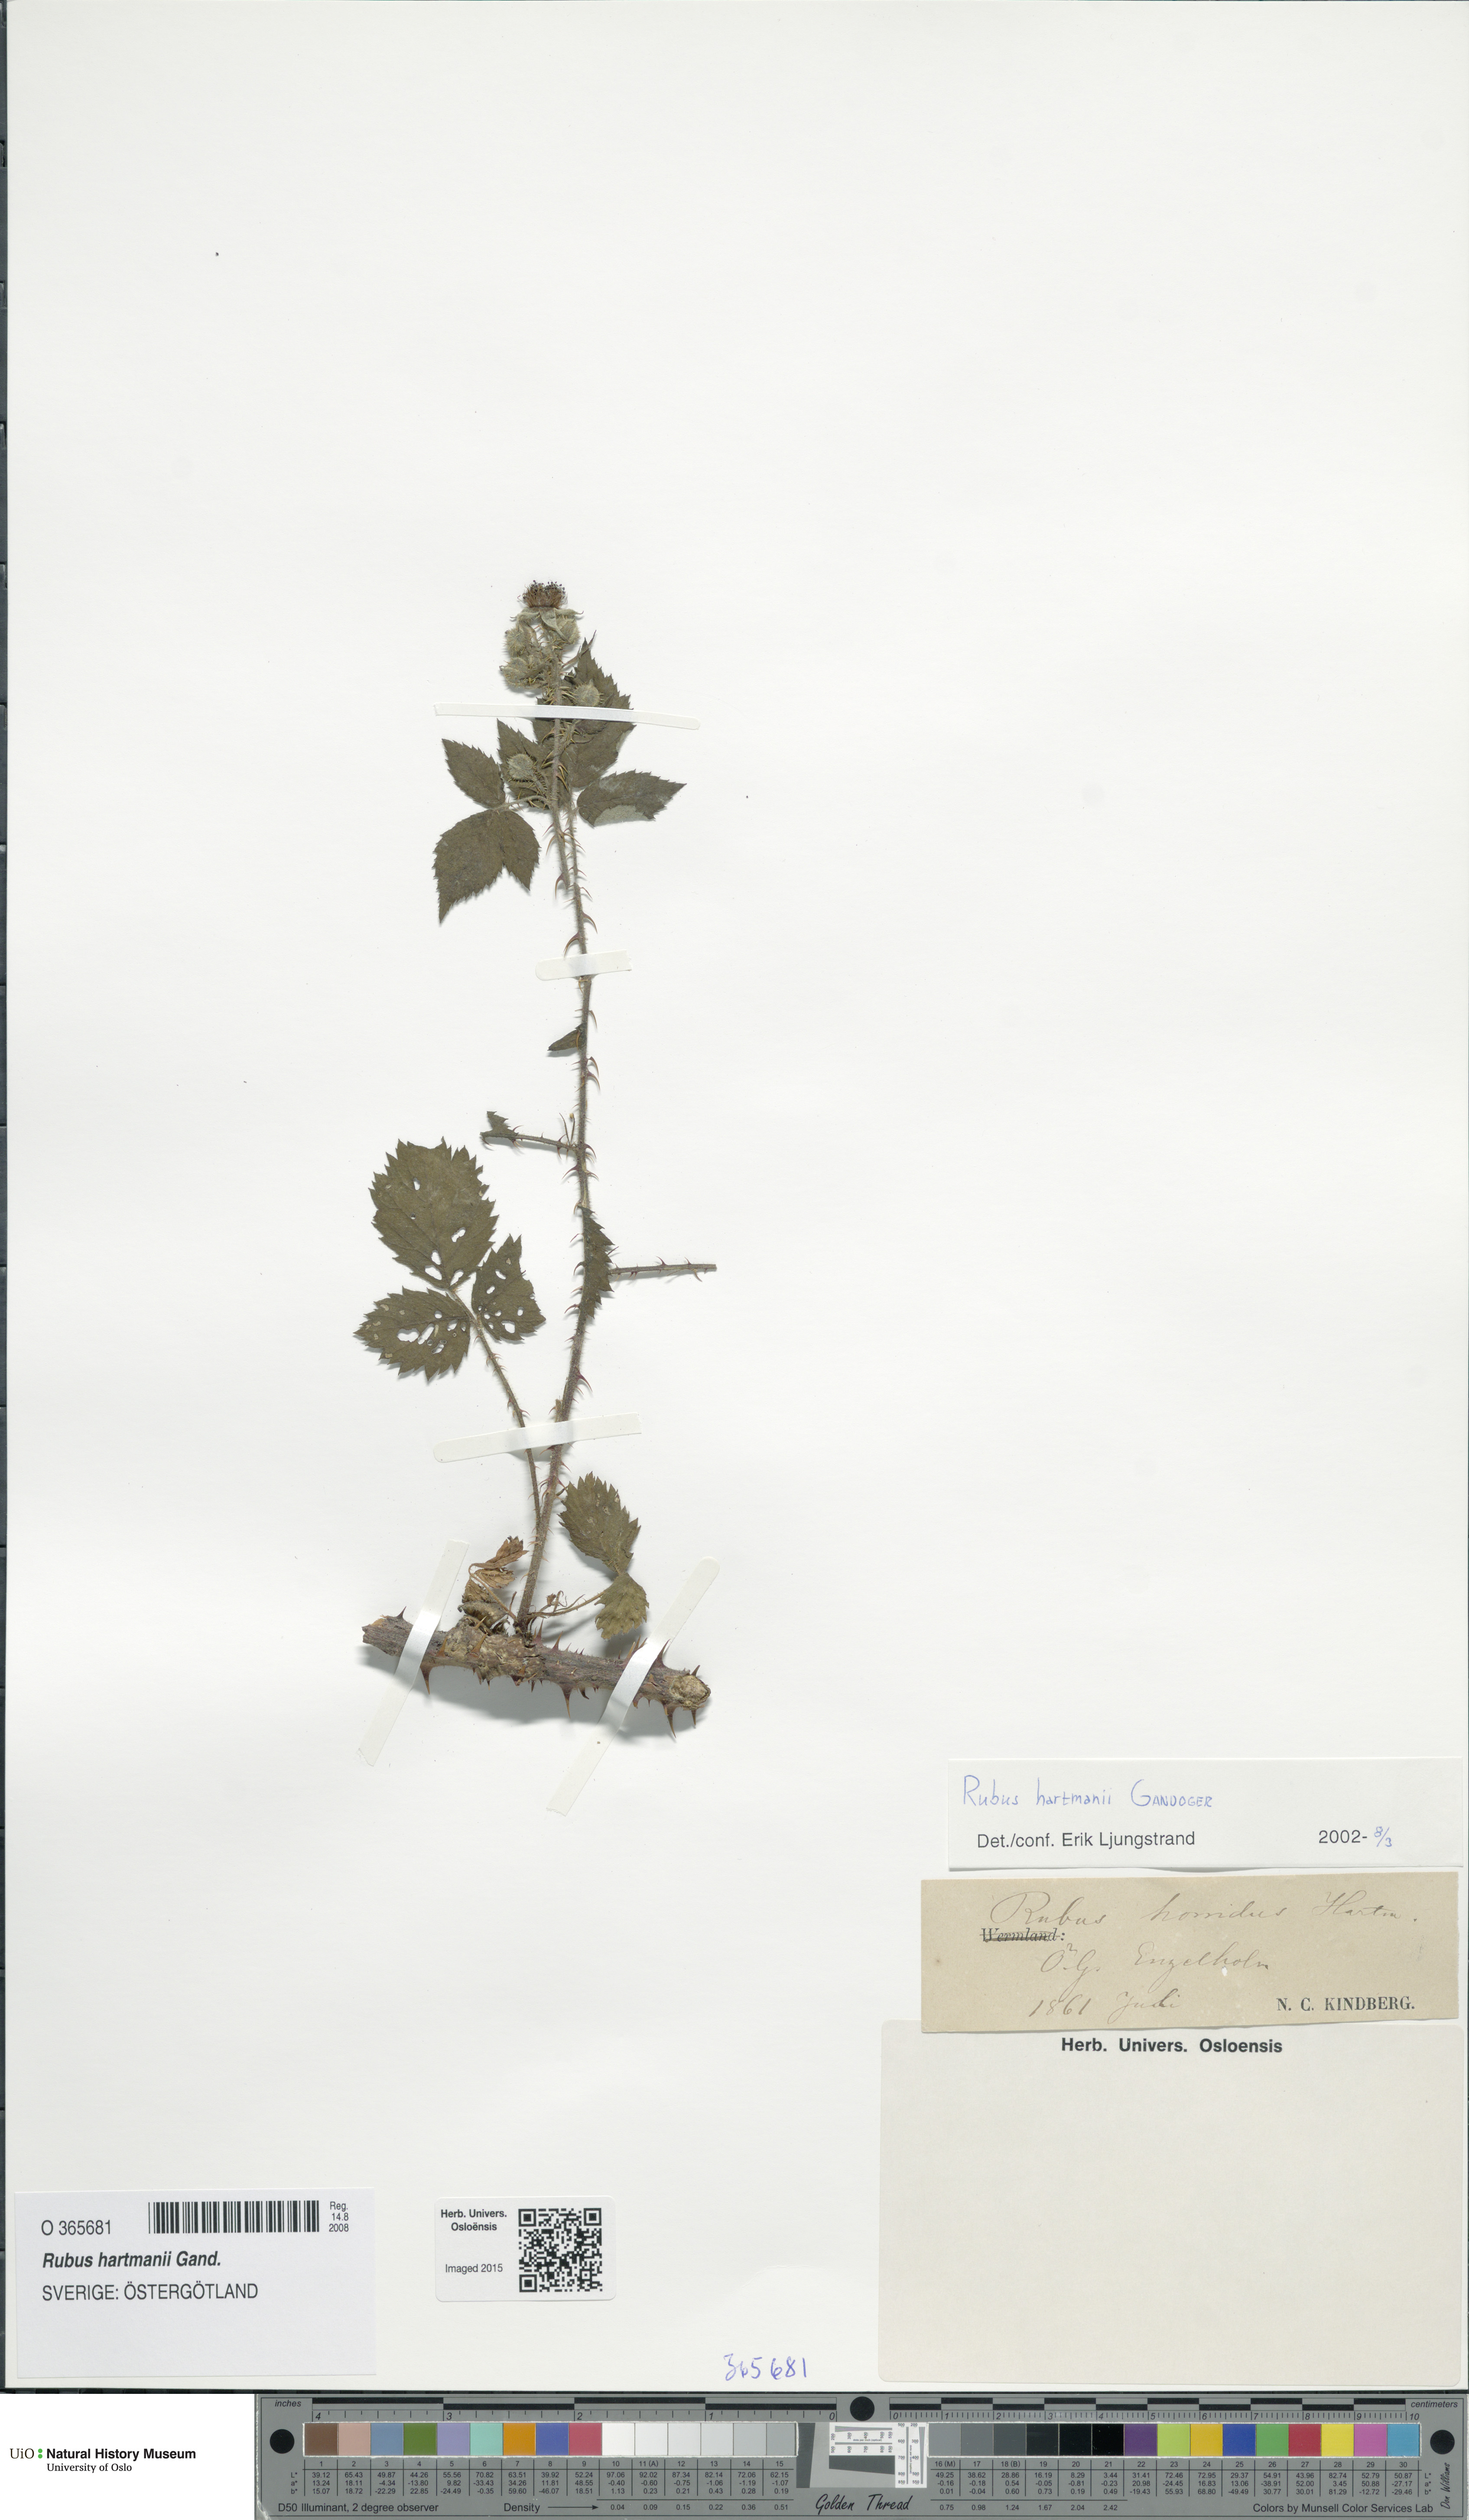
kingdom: Plantae
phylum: Tracheophyta
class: Magnoliopsida
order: Rosales
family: Rosaceae
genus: Rubus
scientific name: Rubus hartmanii
